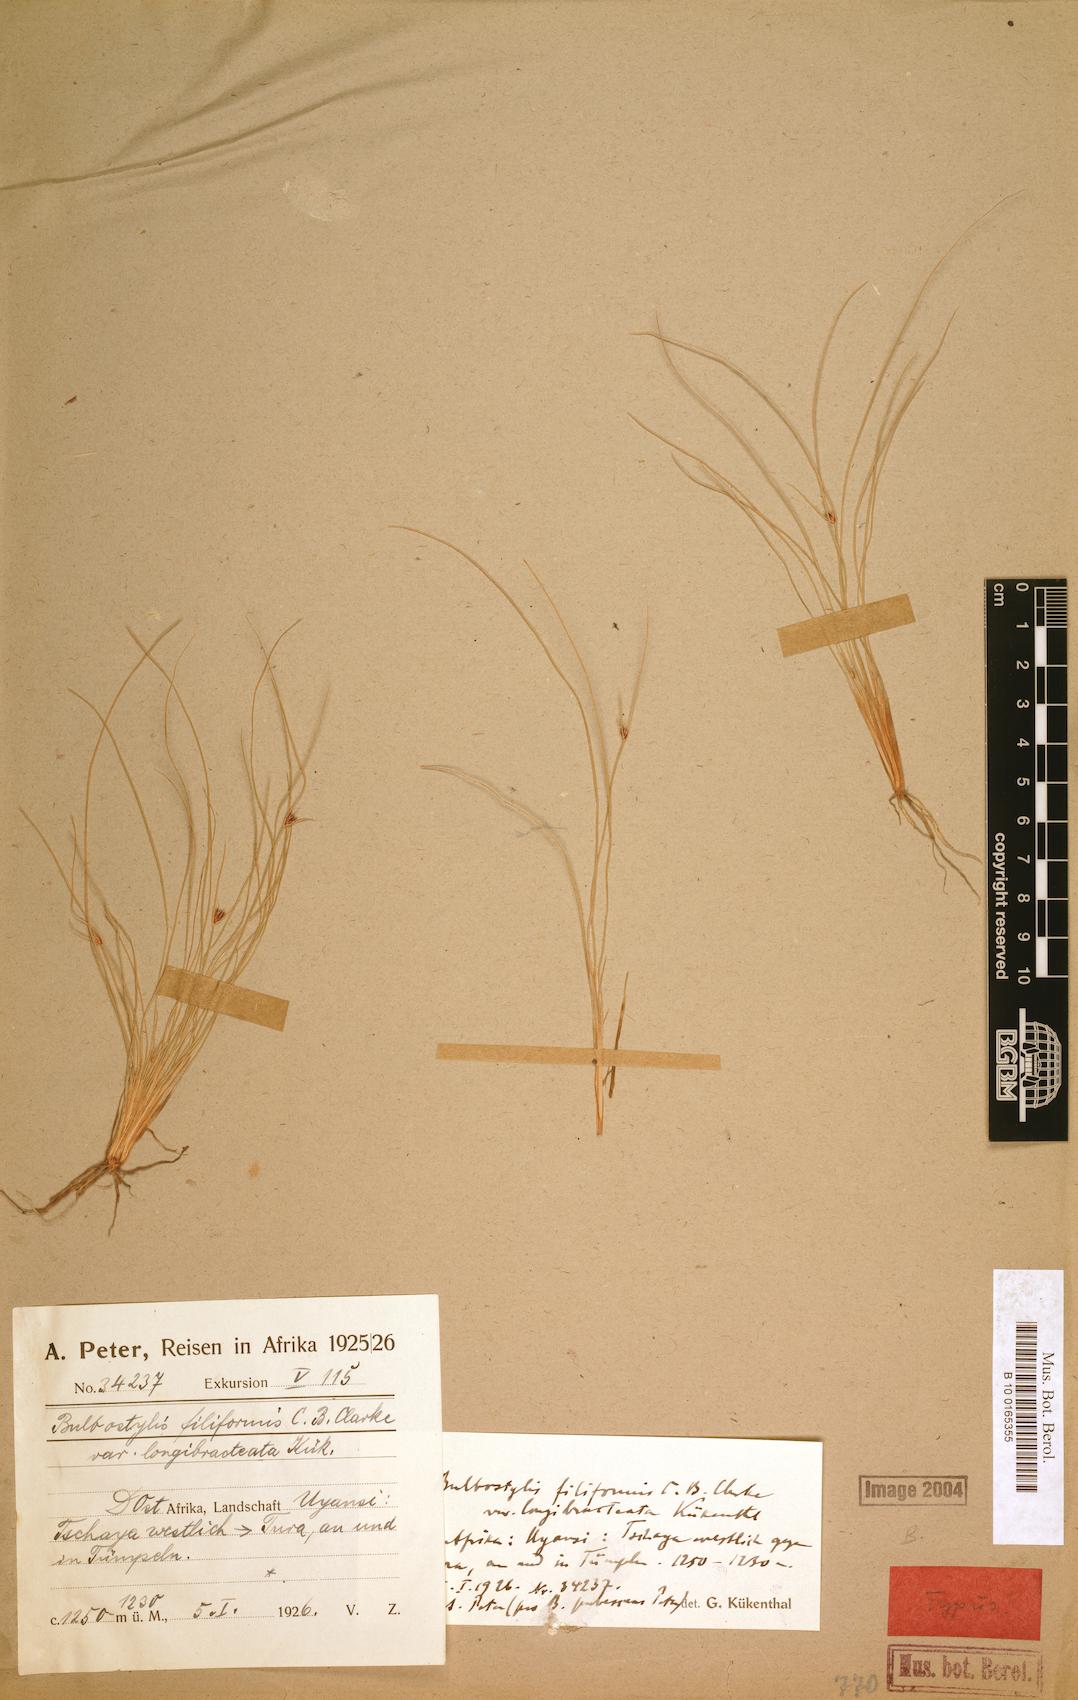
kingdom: Plantae
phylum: Tracheophyta
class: Liliopsida
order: Poales
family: Cyperaceae
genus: Bulbostylis
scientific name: Bulbostylis hispidula
